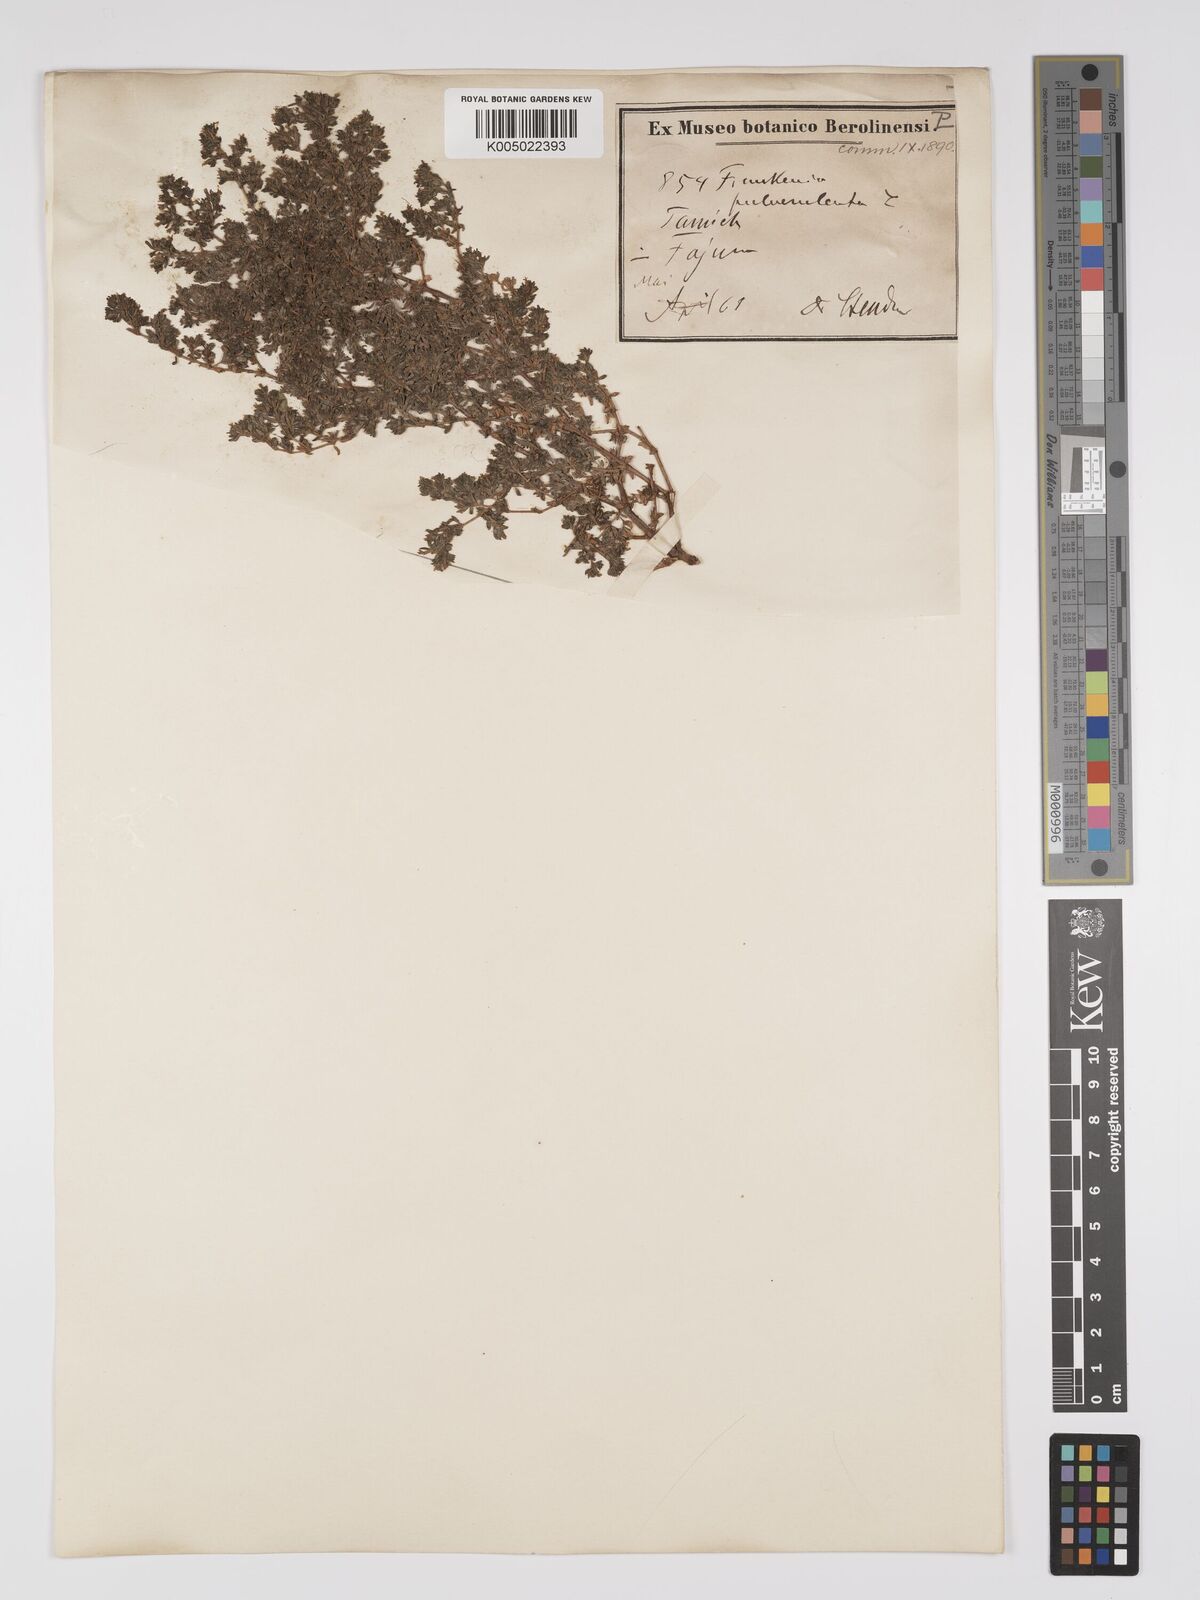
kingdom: Plantae
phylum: Tracheophyta
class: Magnoliopsida
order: Caryophyllales
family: Frankeniaceae
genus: Frankenia
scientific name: Frankenia pulverulenta
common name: European seaheath
